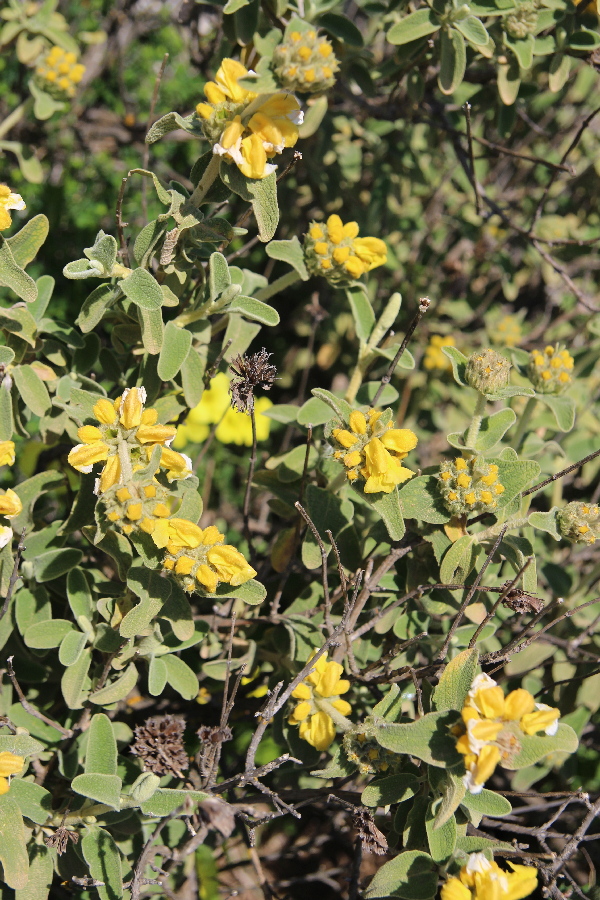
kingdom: Plantae
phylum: Tracheophyta
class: Magnoliopsida
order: Lamiales
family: Lamiaceae
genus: Phlomis
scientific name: Phlomis fruticosa
